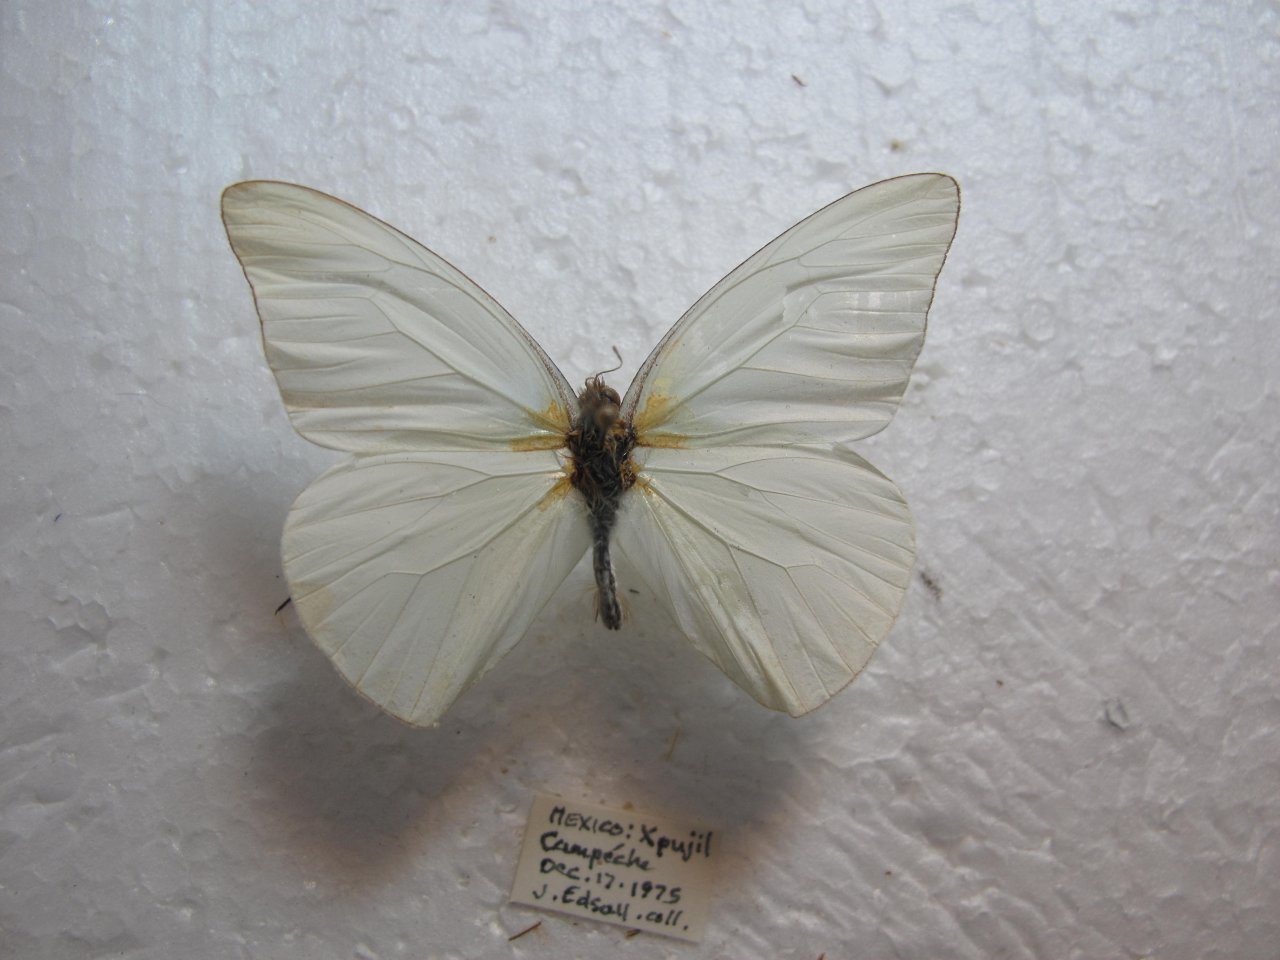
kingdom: Animalia
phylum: Arthropoda
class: Insecta
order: Lepidoptera
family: Pieridae
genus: Glutophrissa
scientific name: Glutophrissa drusilla
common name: Florida White
